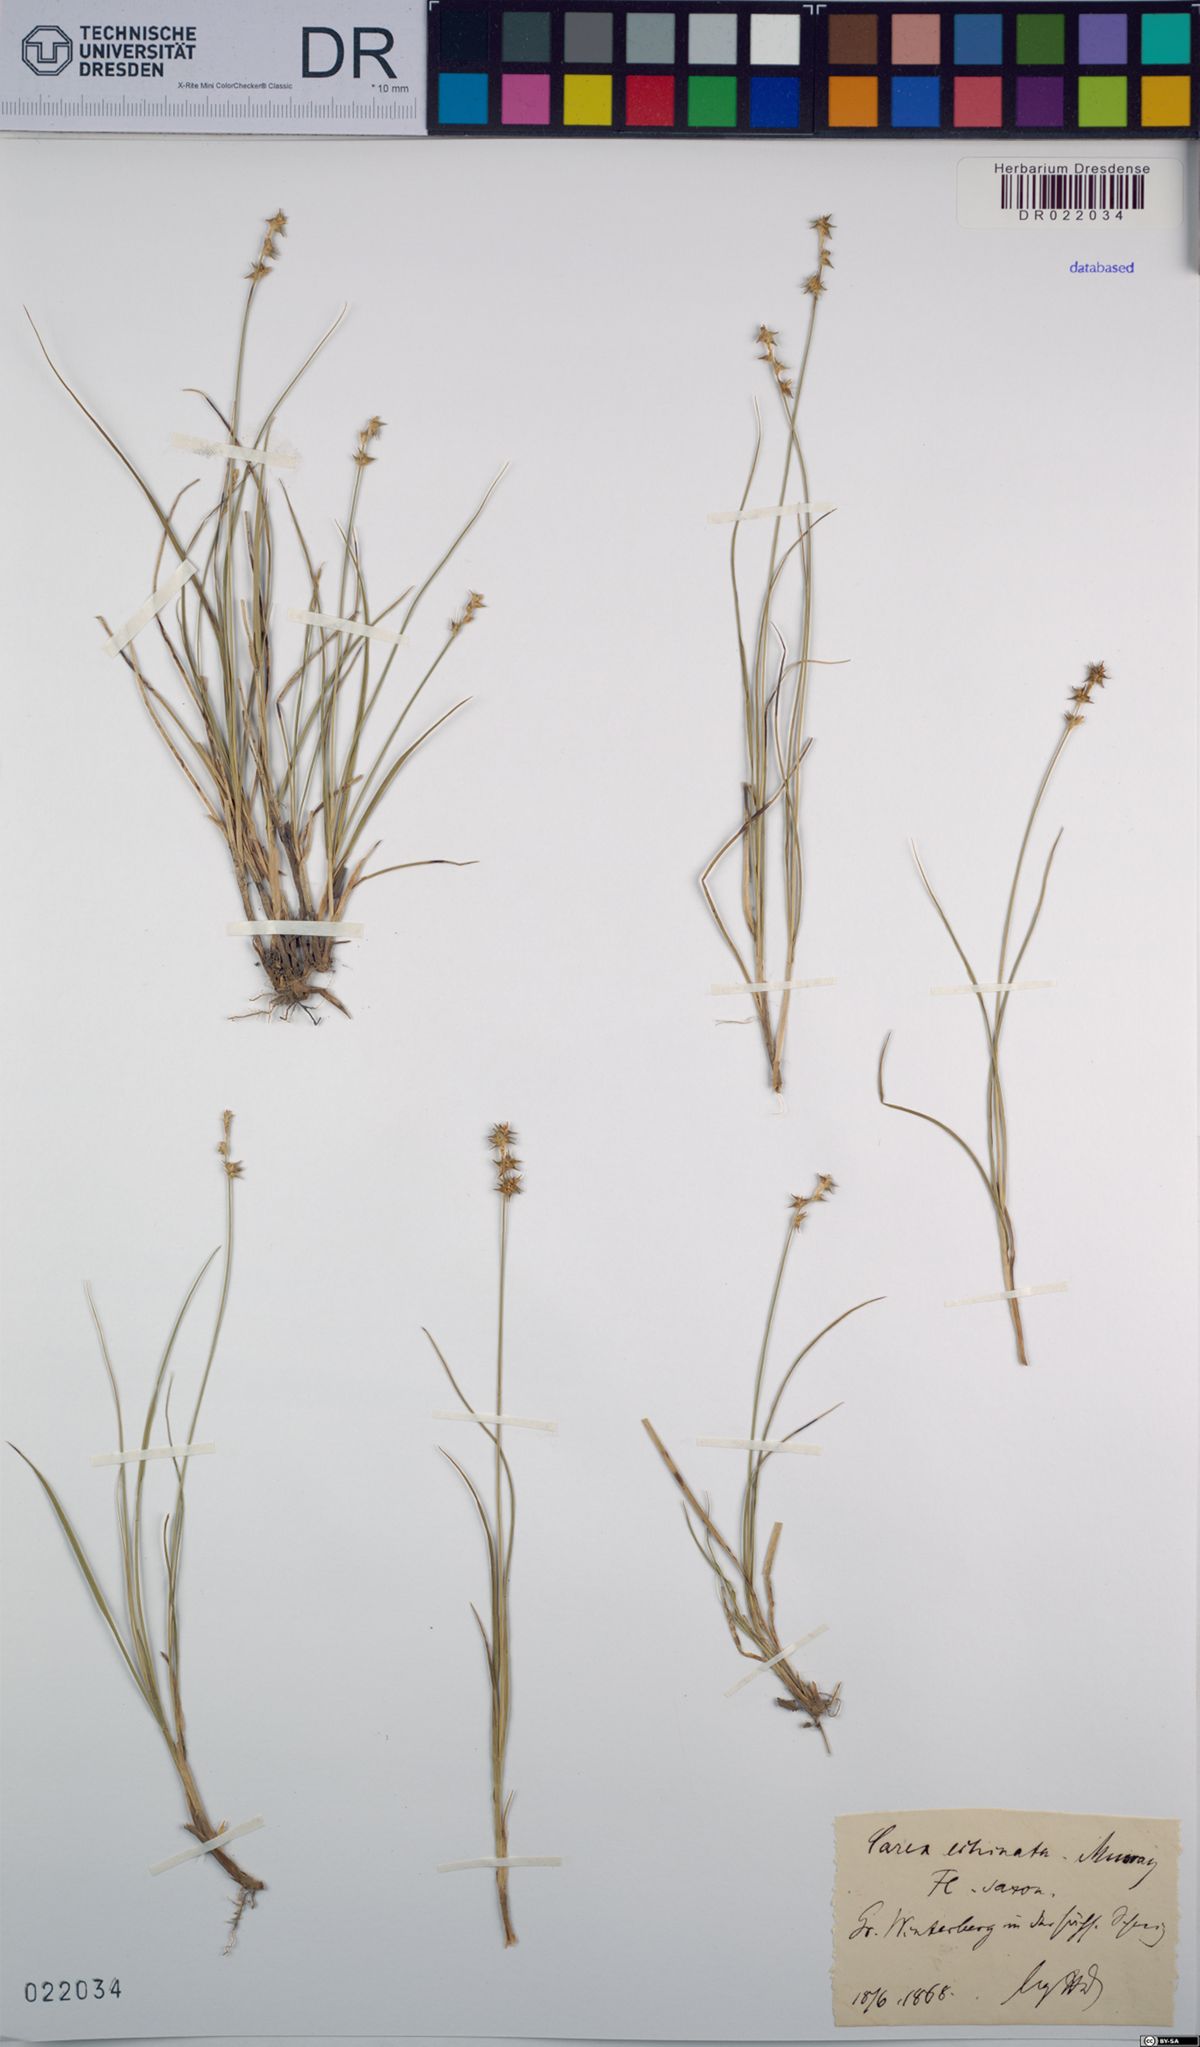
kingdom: Plantae
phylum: Tracheophyta
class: Liliopsida
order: Poales
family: Cyperaceae
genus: Carex
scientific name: Carex echinata
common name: Star sedge
